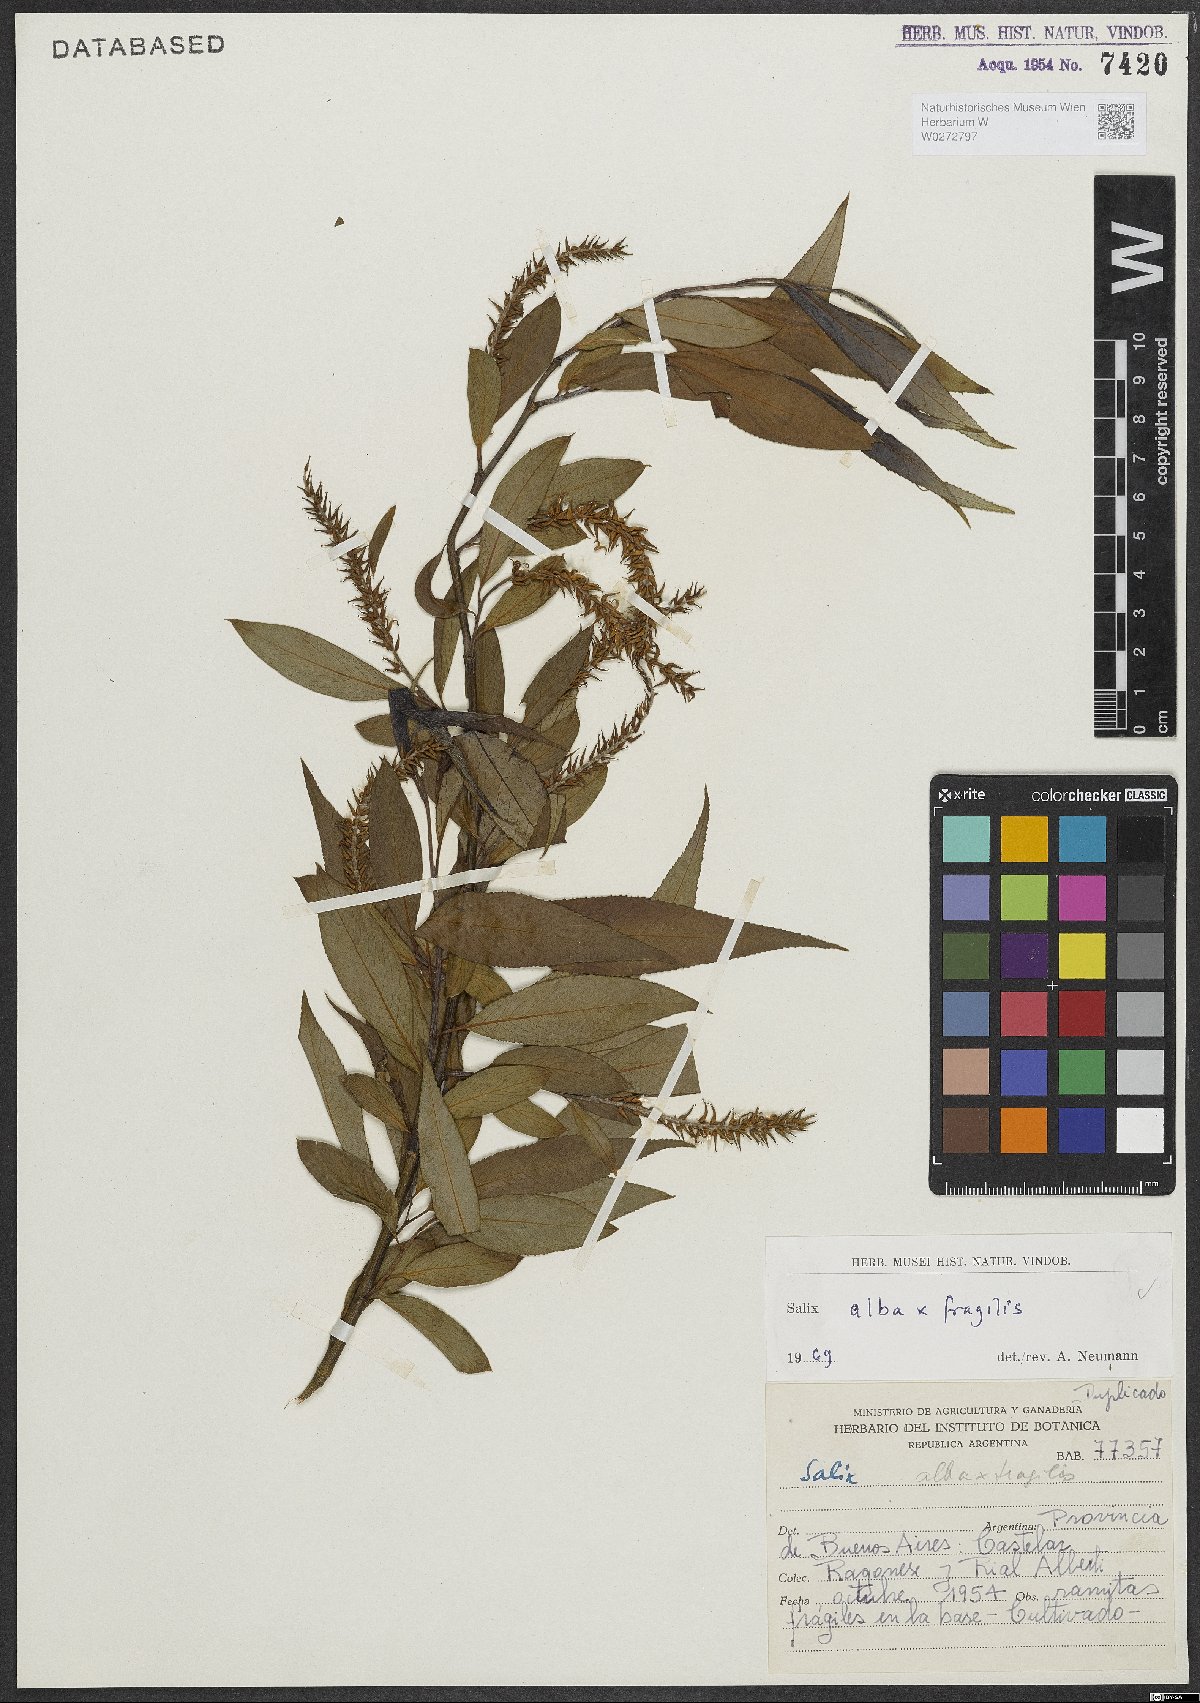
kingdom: Plantae
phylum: Tracheophyta
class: Magnoliopsida
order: Malpighiales
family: Salicaceae
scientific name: Salicaceae
